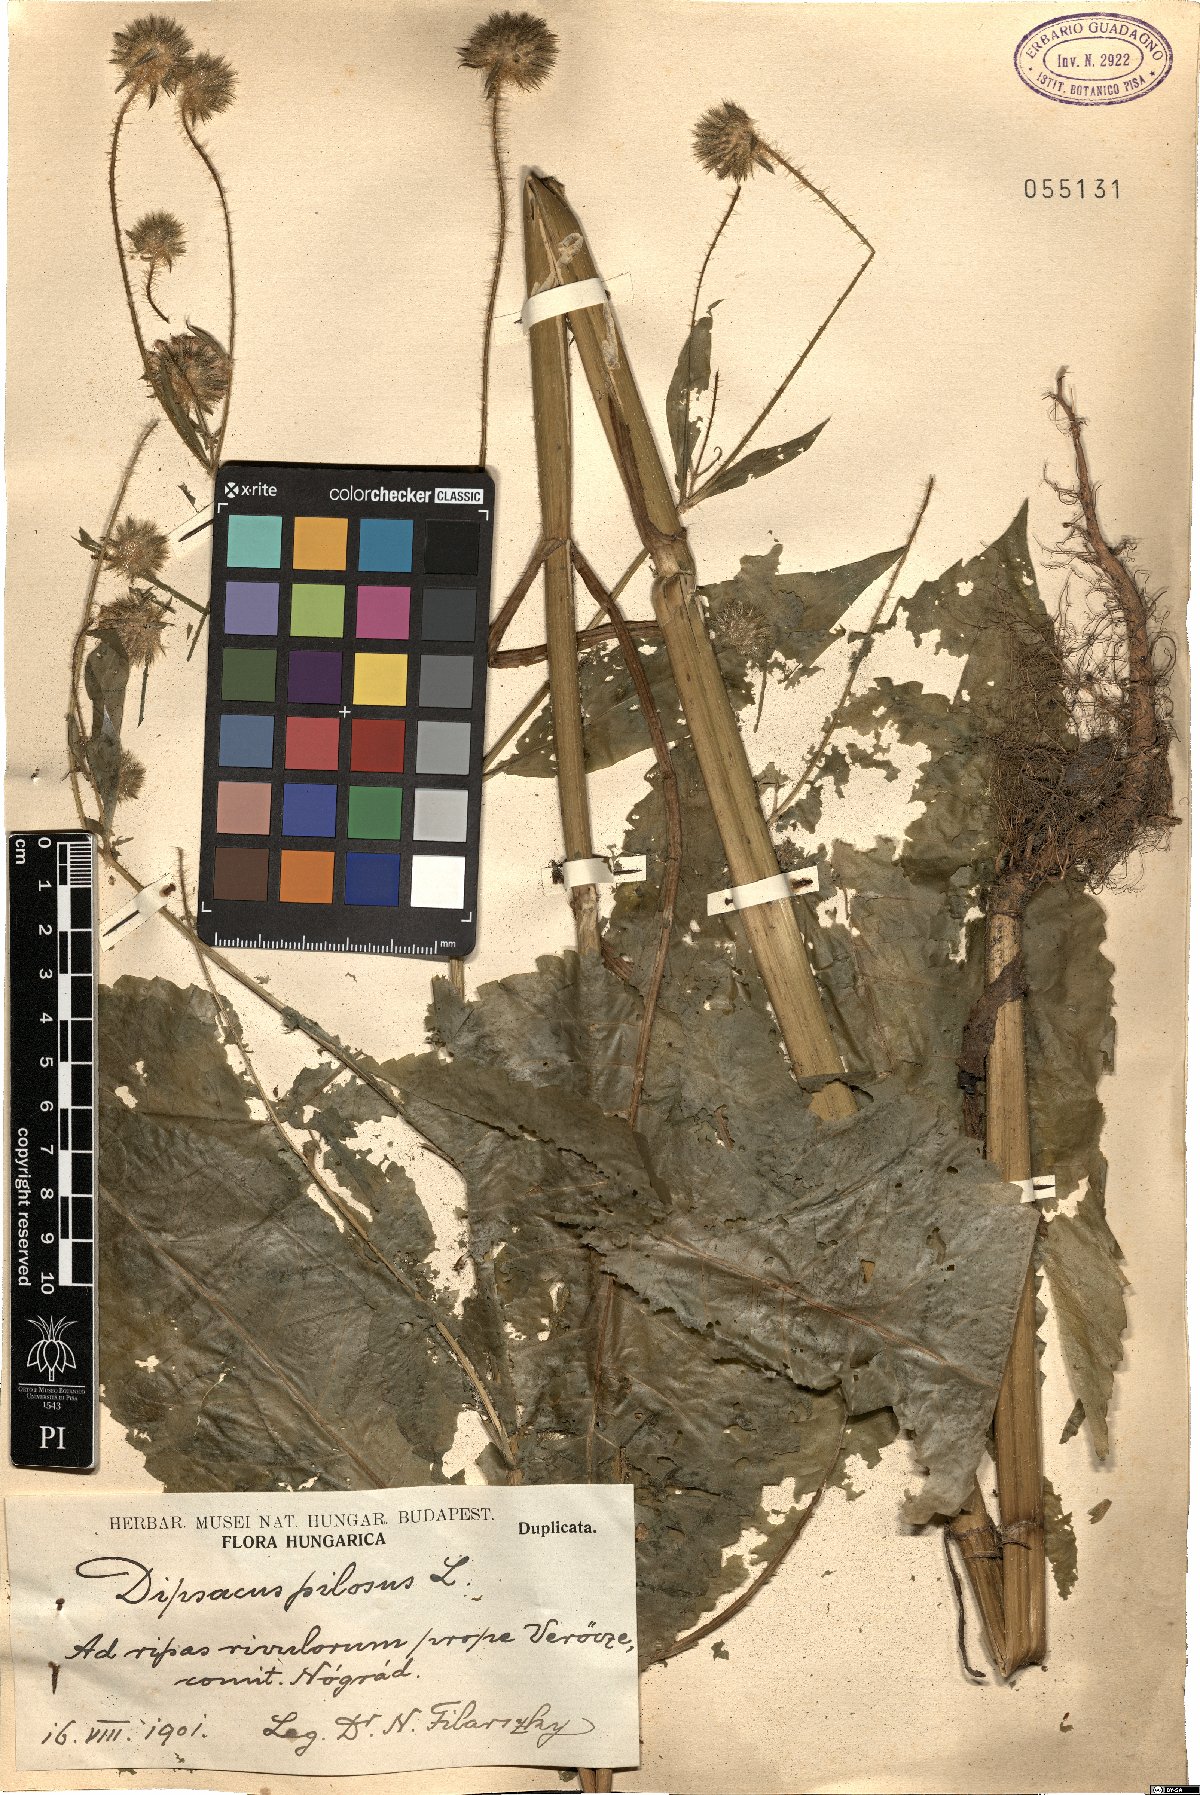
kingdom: Plantae
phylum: Tracheophyta
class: Magnoliopsida
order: Dipsacales
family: Caprifoliaceae
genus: Dipsacus
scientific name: Dipsacus pilosus
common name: Small teasel
